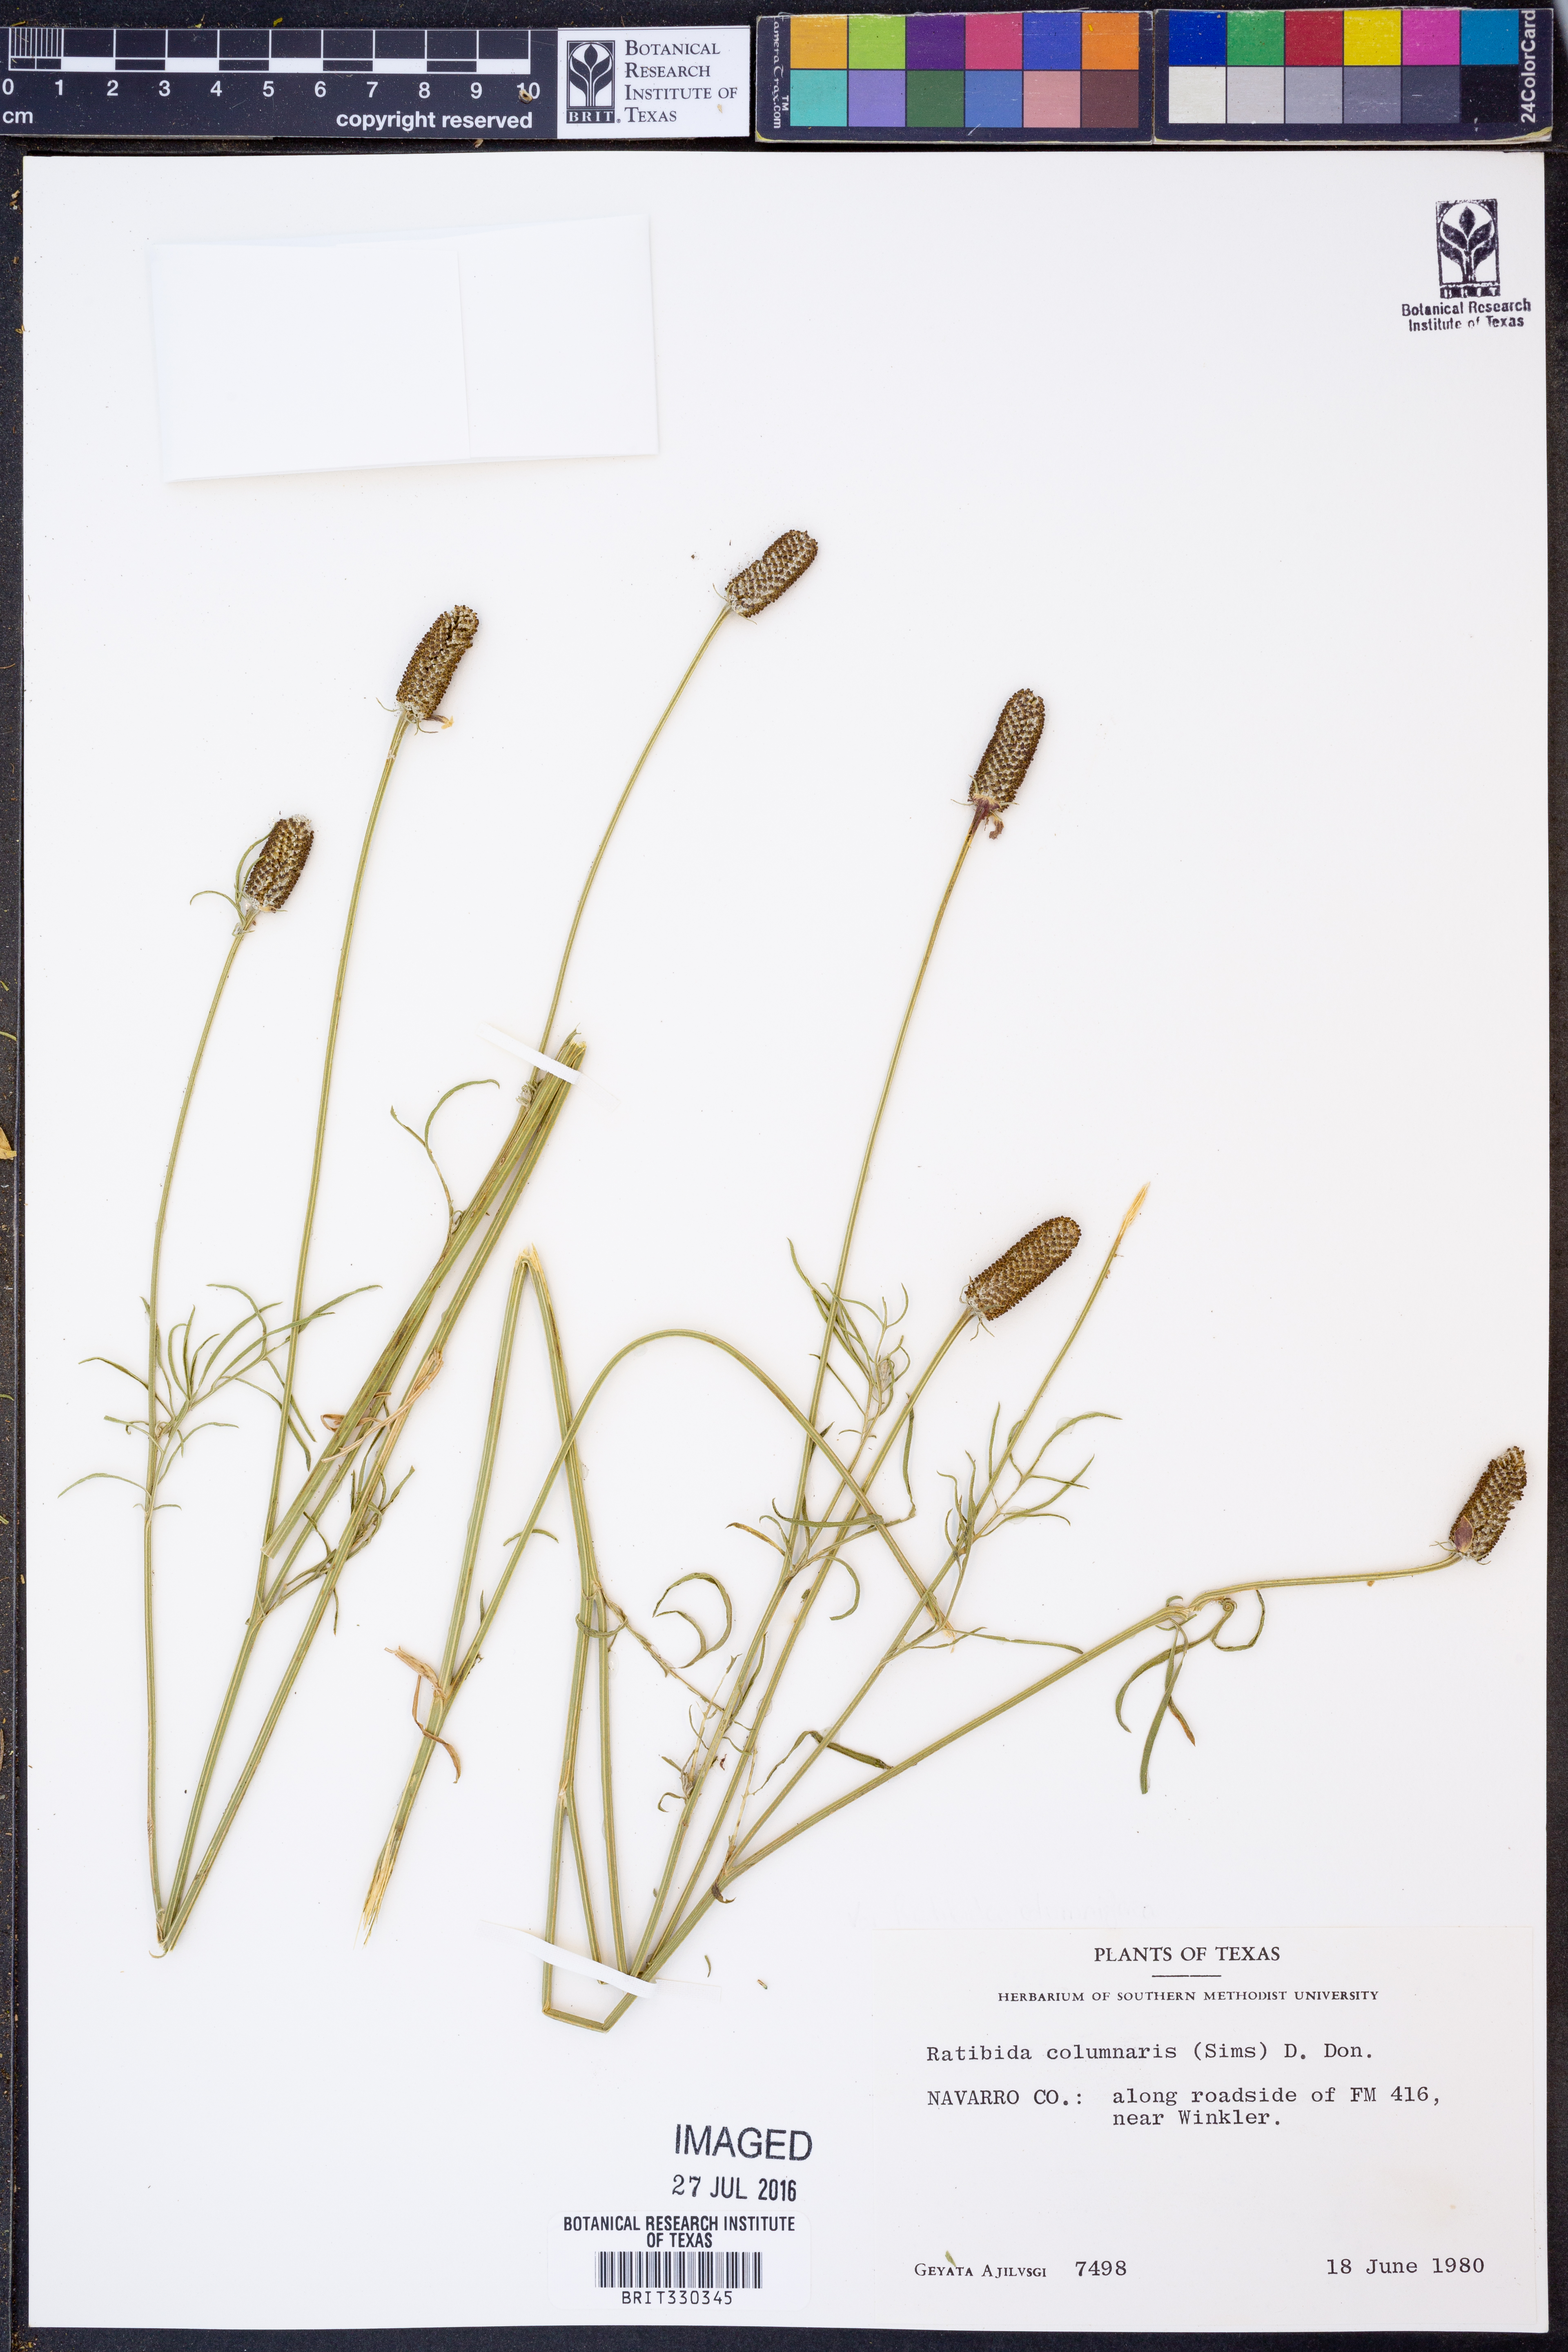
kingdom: Plantae
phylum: Tracheophyta
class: Magnoliopsida
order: Asterales
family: Asteraceae
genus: Ratibida
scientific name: Ratibida columnifera
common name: Prairie coneflower
